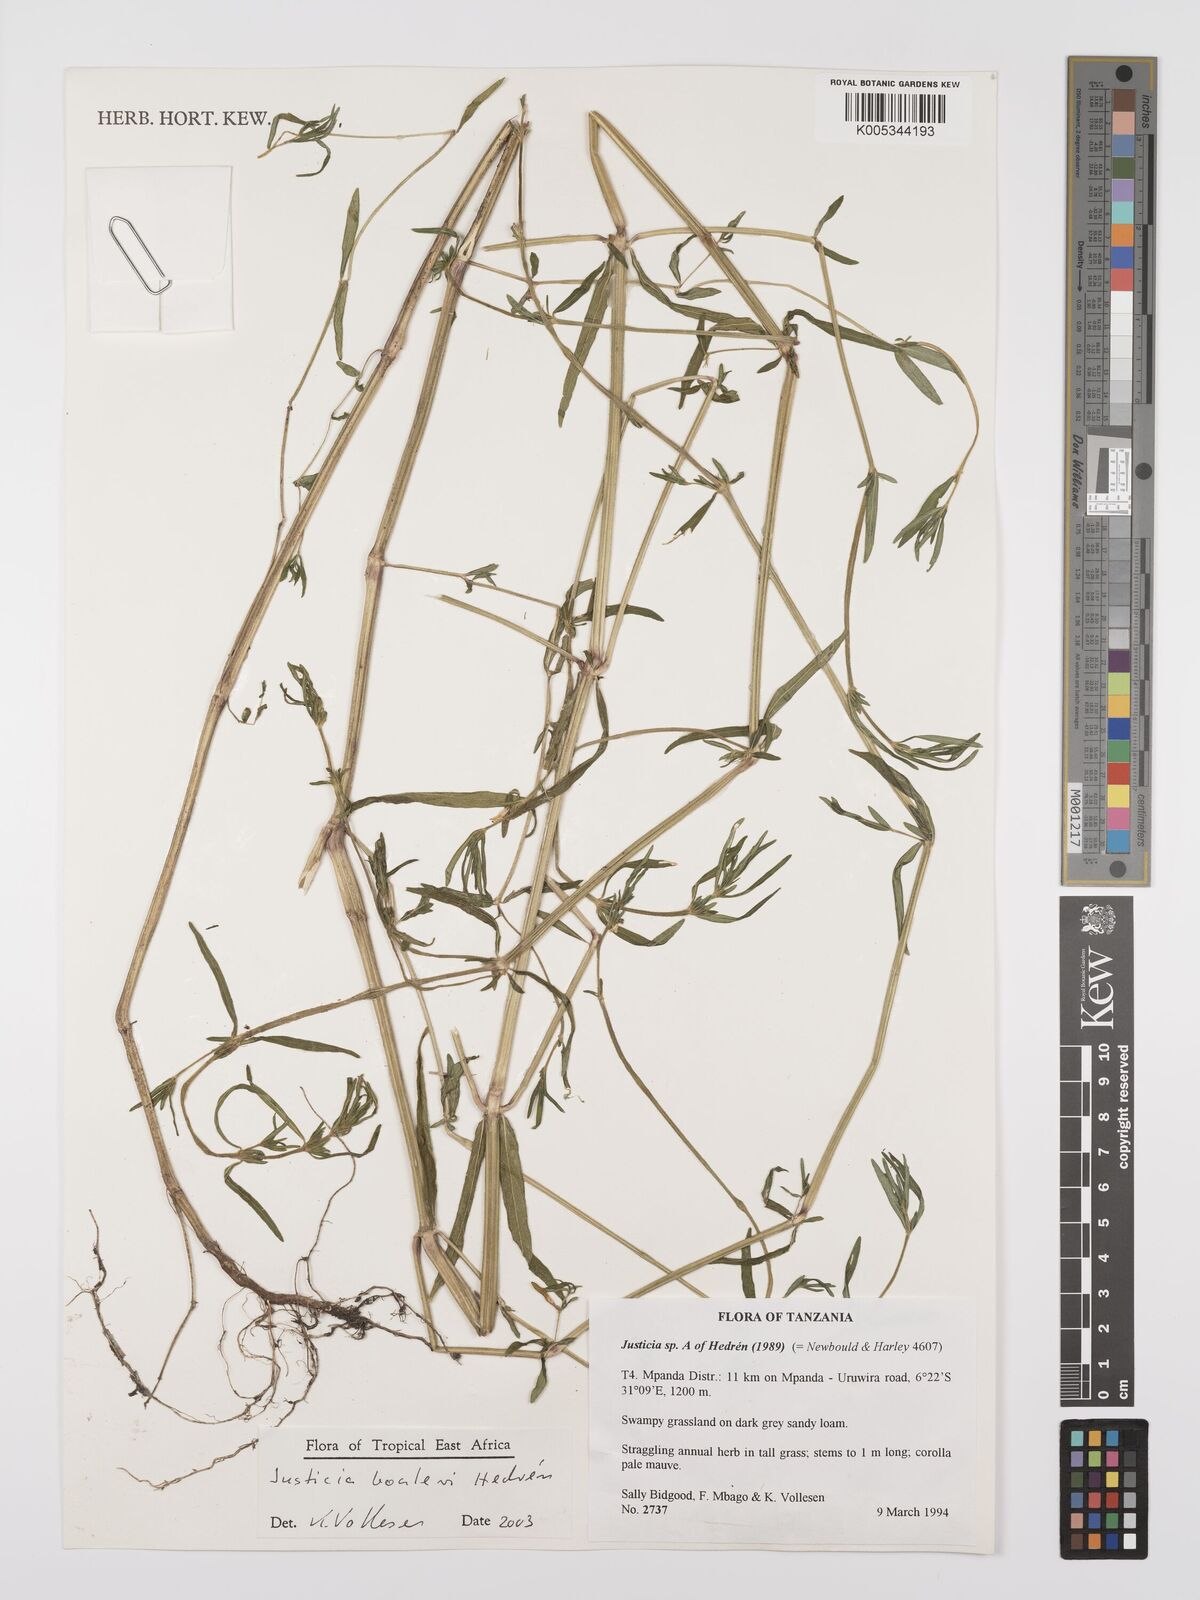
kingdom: Plantae
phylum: Tracheophyta
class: Magnoliopsida
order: Lamiales
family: Acanthaceae
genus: Justicia
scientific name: Justicia boaleri
